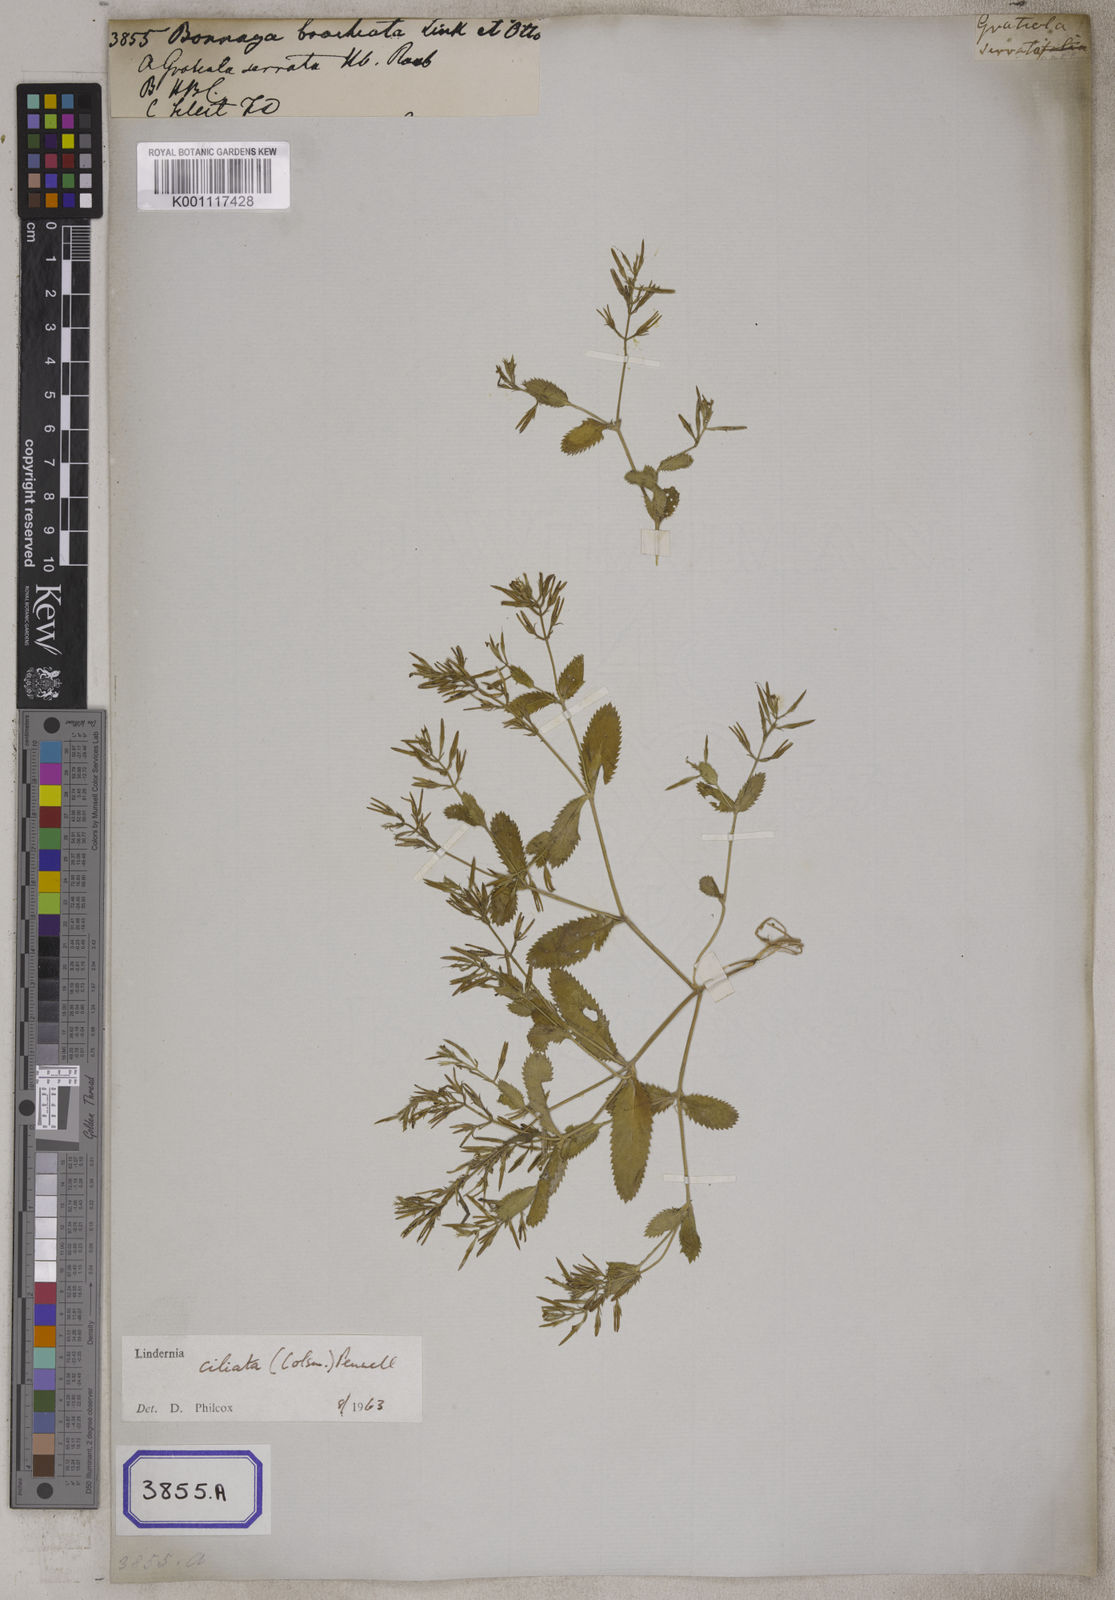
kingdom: Plantae
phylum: Tracheophyta
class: Magnoliopsida
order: Lamiales
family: Linderniaceae
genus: Bonnaya
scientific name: Bonnaya ciliata
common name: Hairy slitwort
